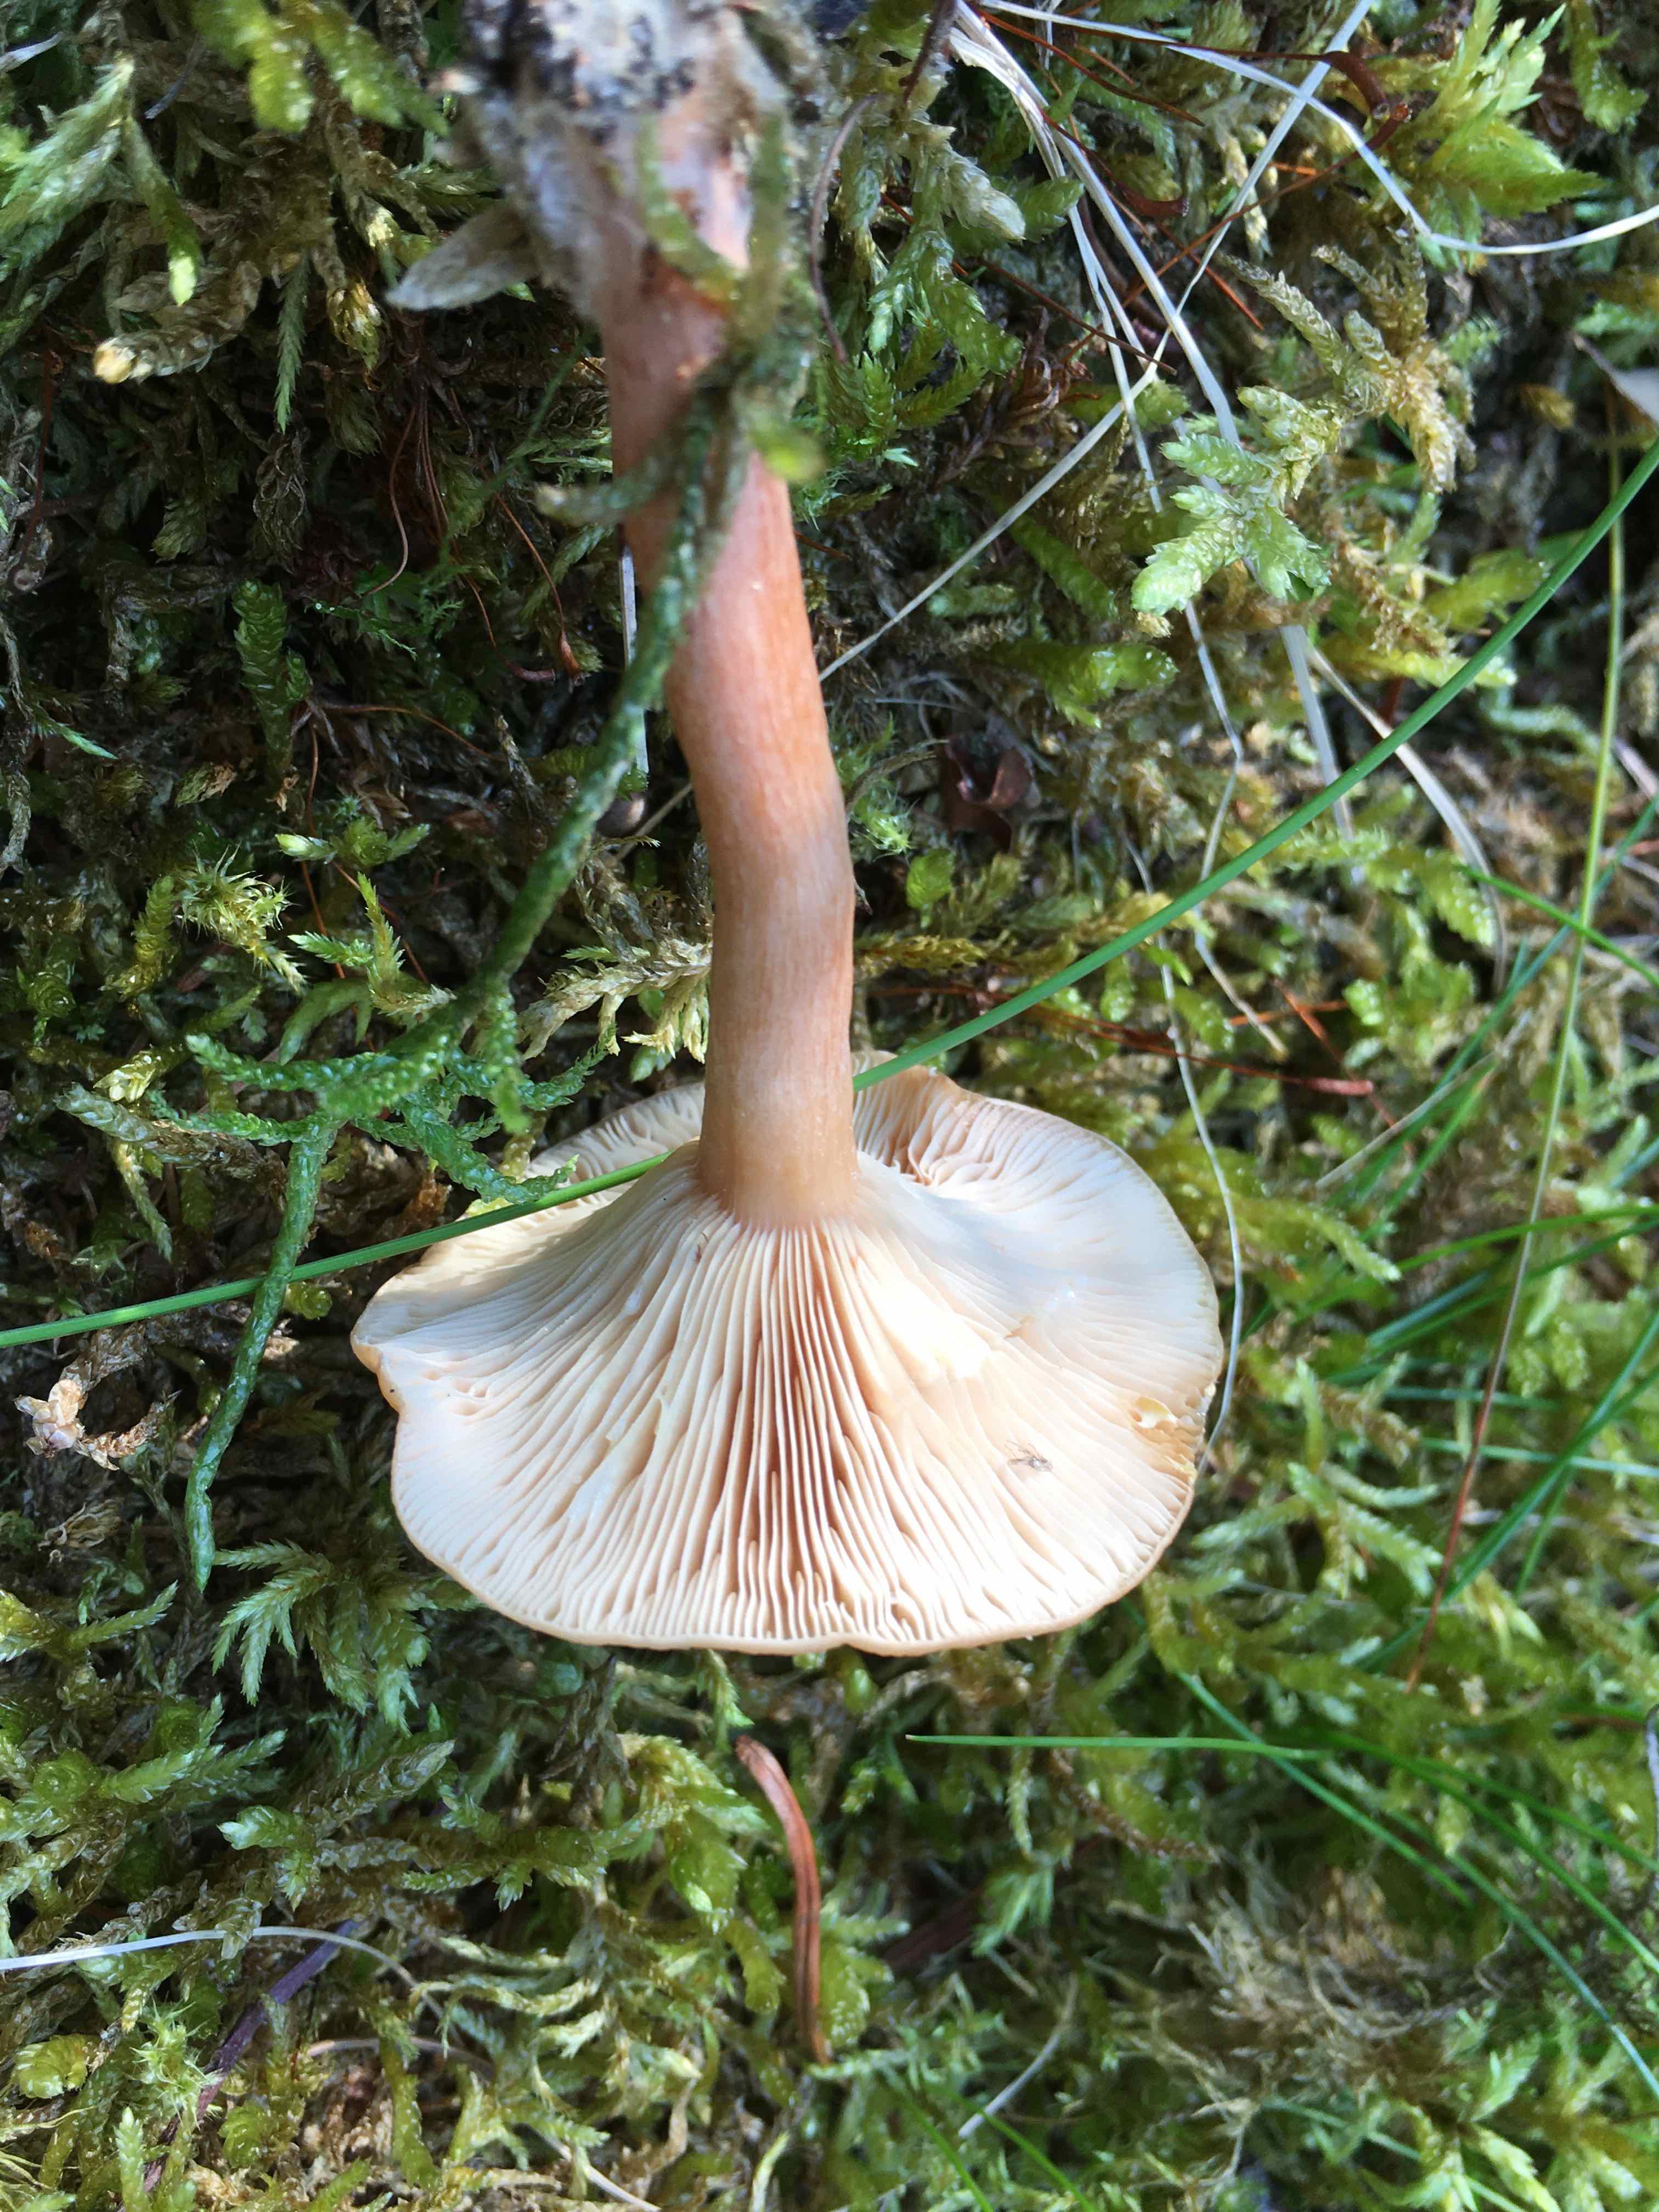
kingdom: Fungi
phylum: Basidiomycota
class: Agaricomycetes
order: Russulales
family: Russulaceae
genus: Lactarius
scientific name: Lactarius tabidus
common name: rynket mælkehat
